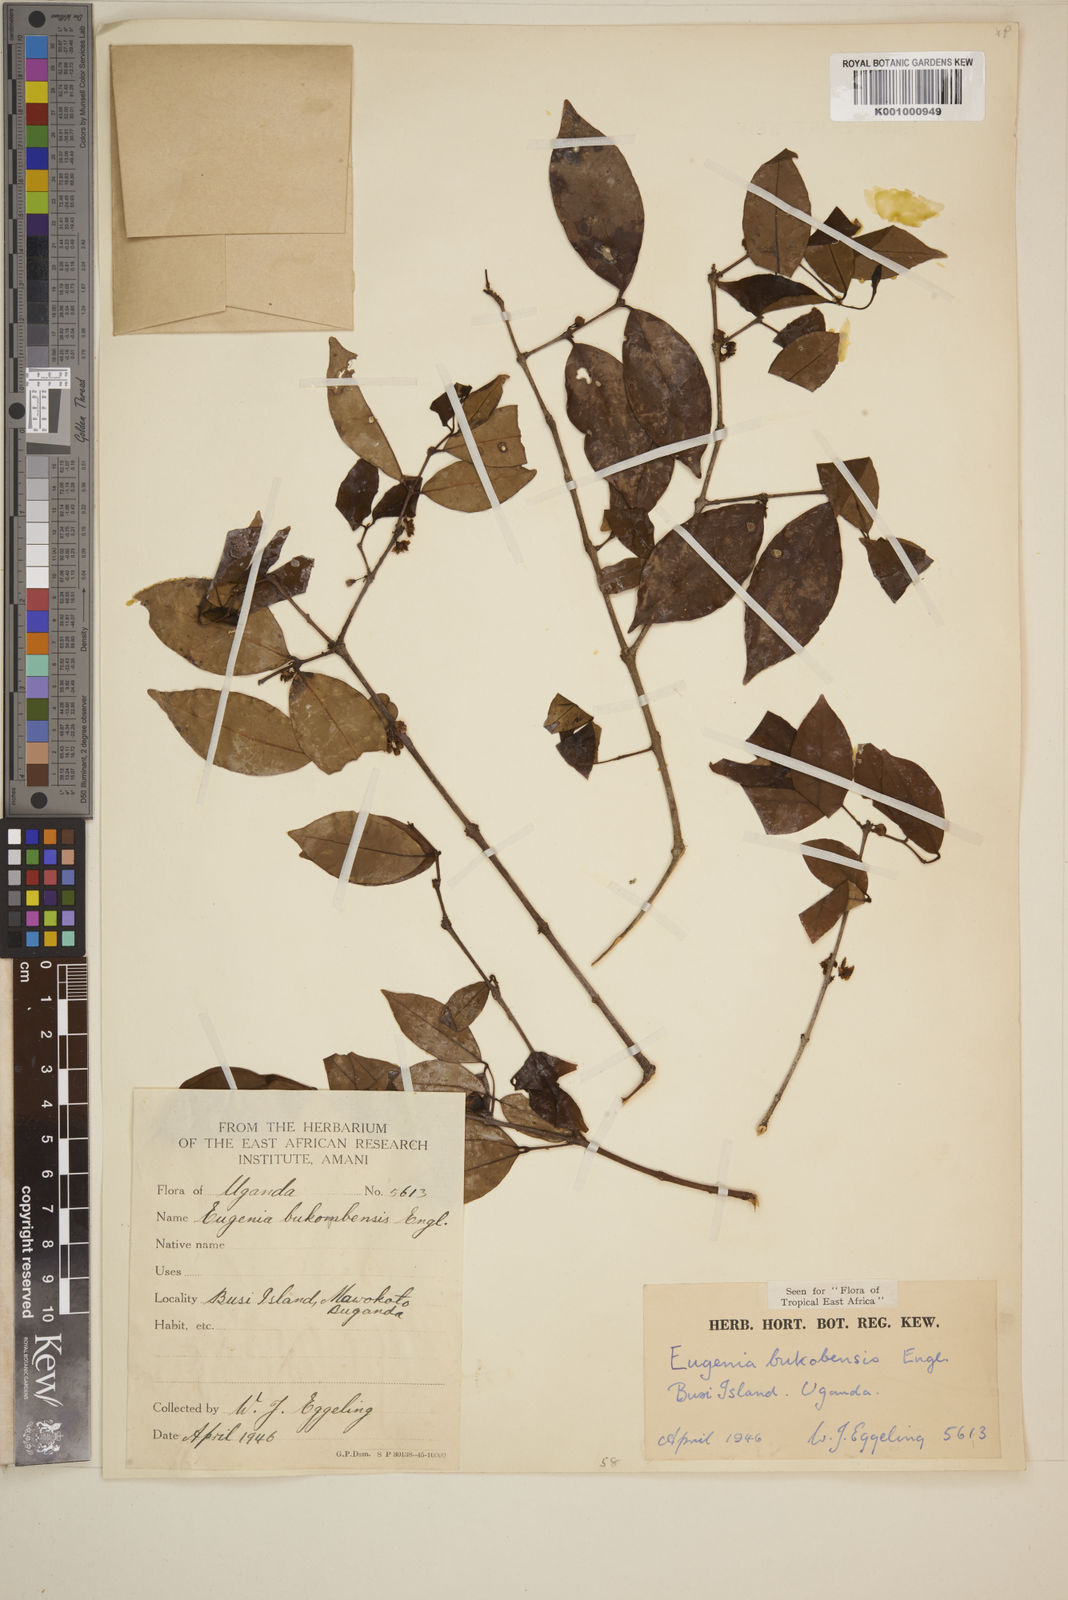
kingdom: Plantae
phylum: Tracheophyta
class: Magnoliopsida
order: Myrtales
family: Myrtaceae
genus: Eugenia
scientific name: Eugenia bukobensis
